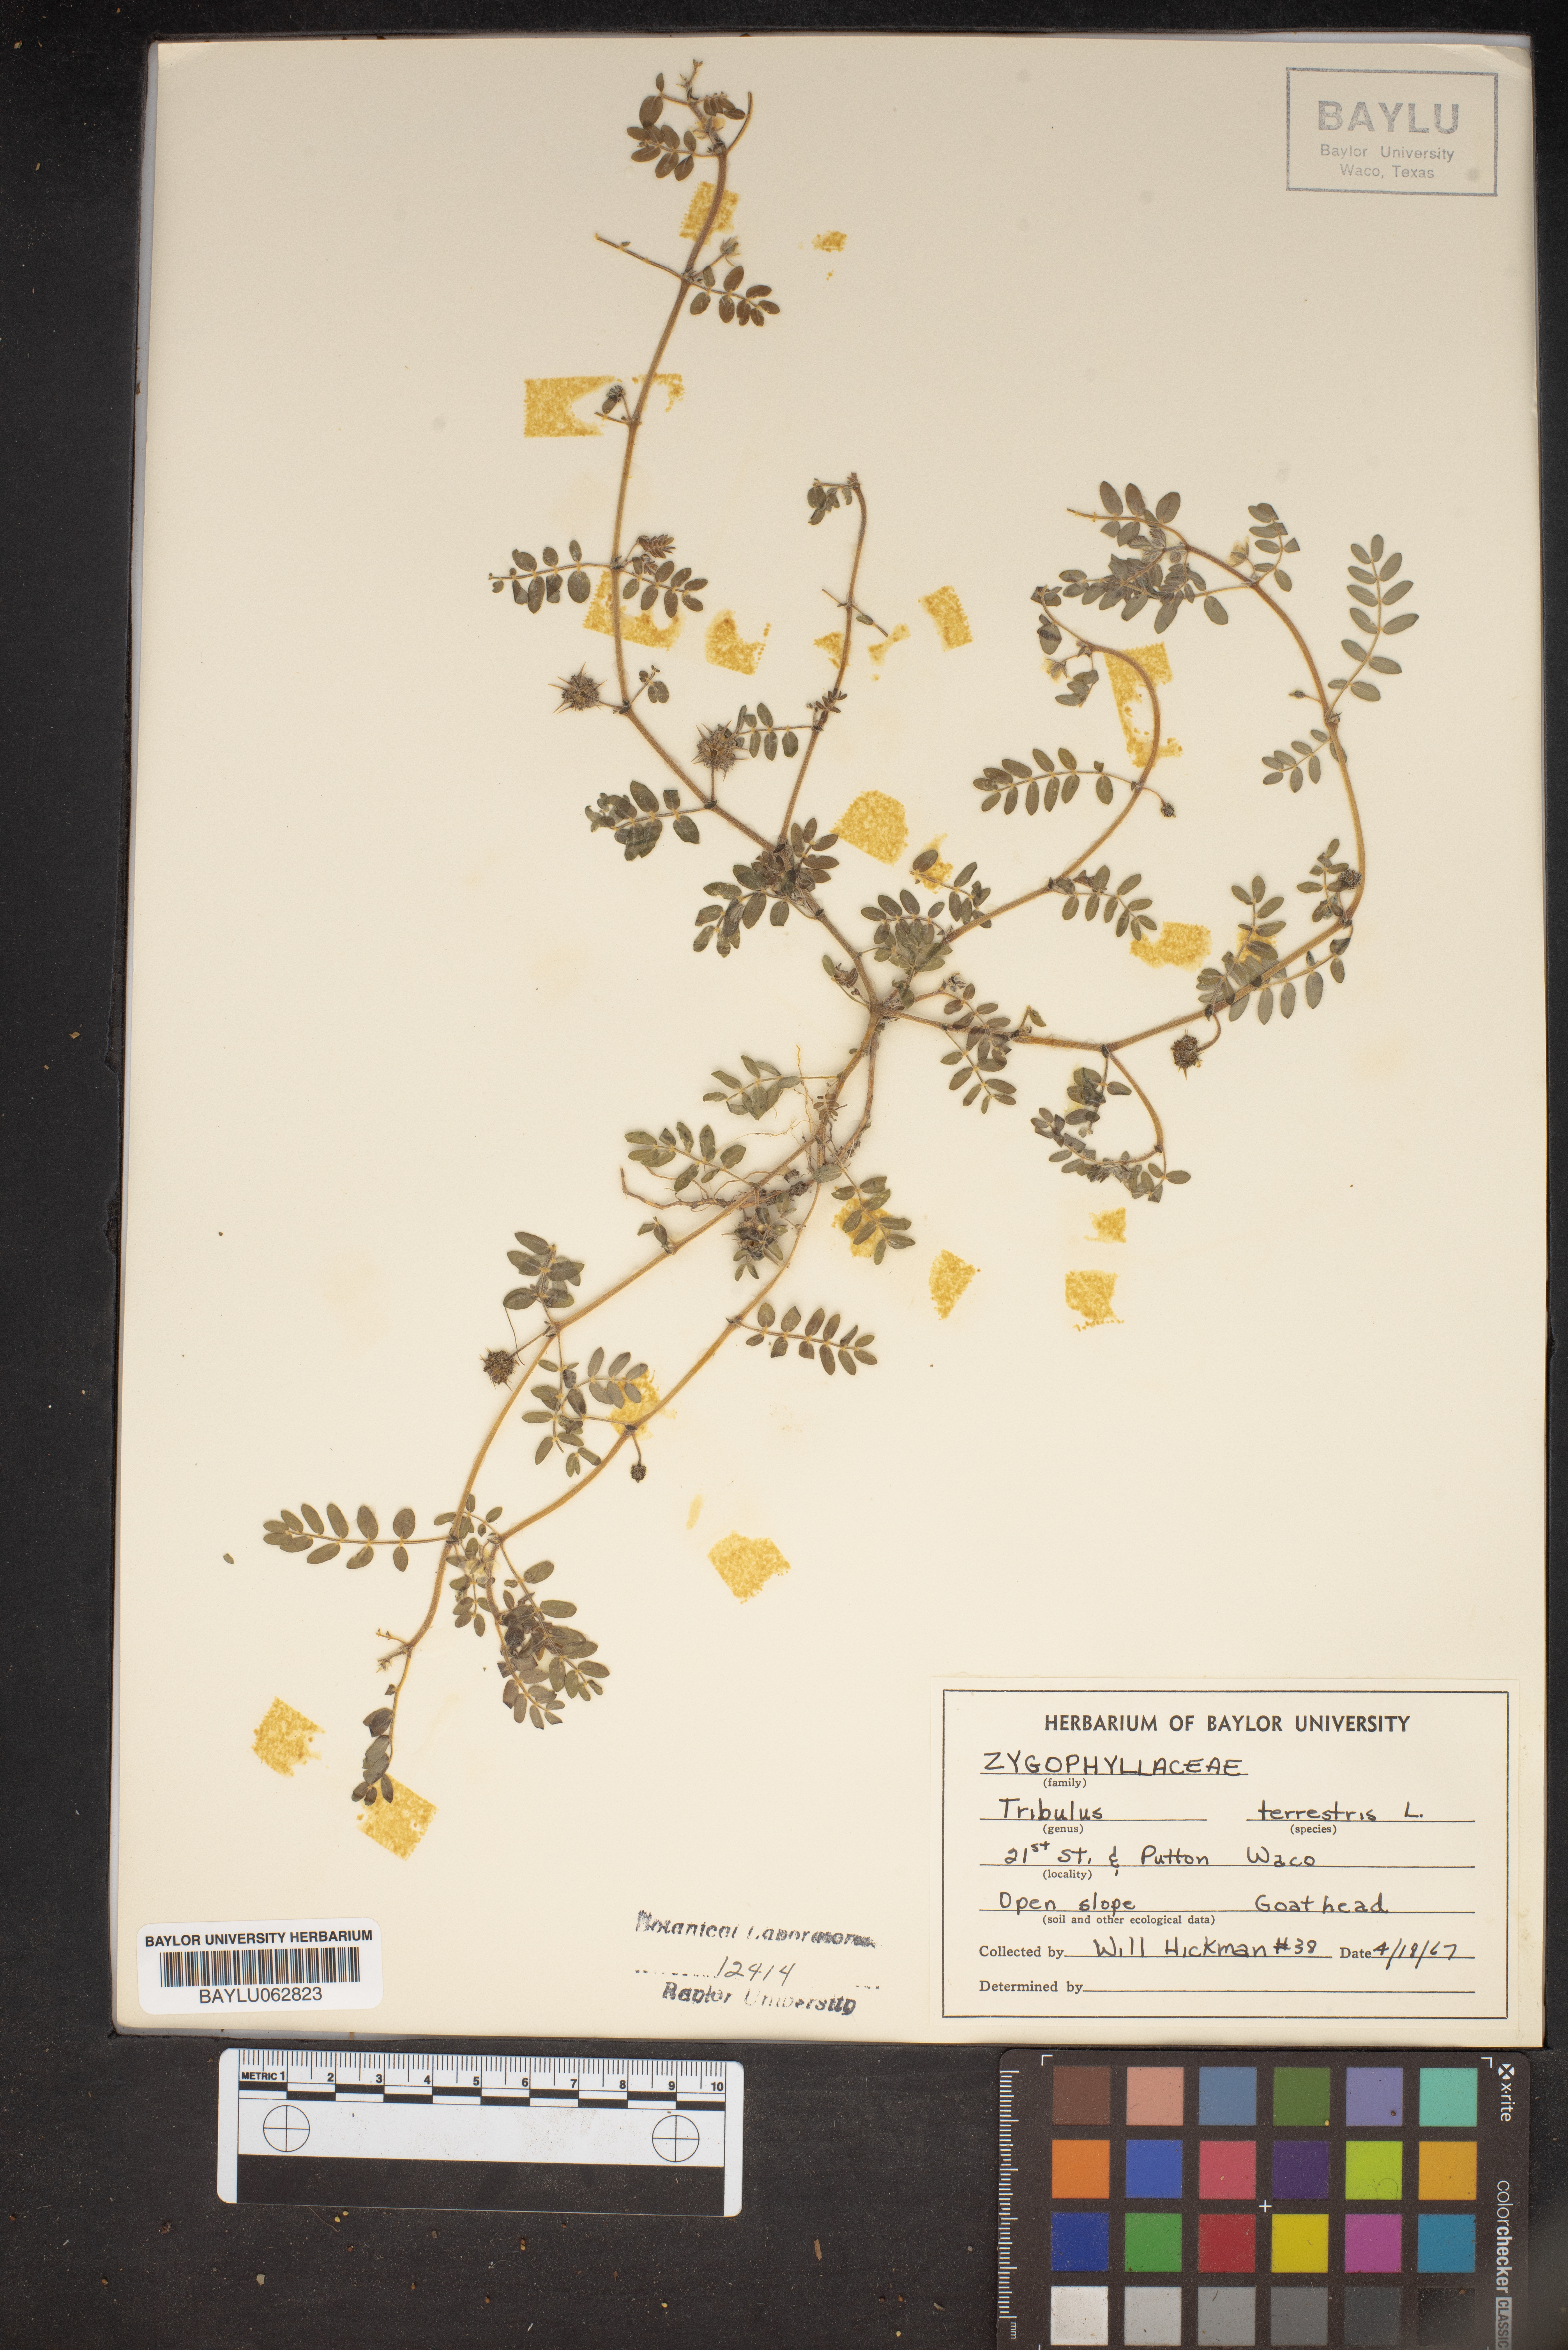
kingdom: Plantae
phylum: Tracheophyta
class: Magnoliopsida
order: Zygophyllales
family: Zygophyllaceae
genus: Tribulus
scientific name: Tribulus terrestris
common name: Puncturevine
